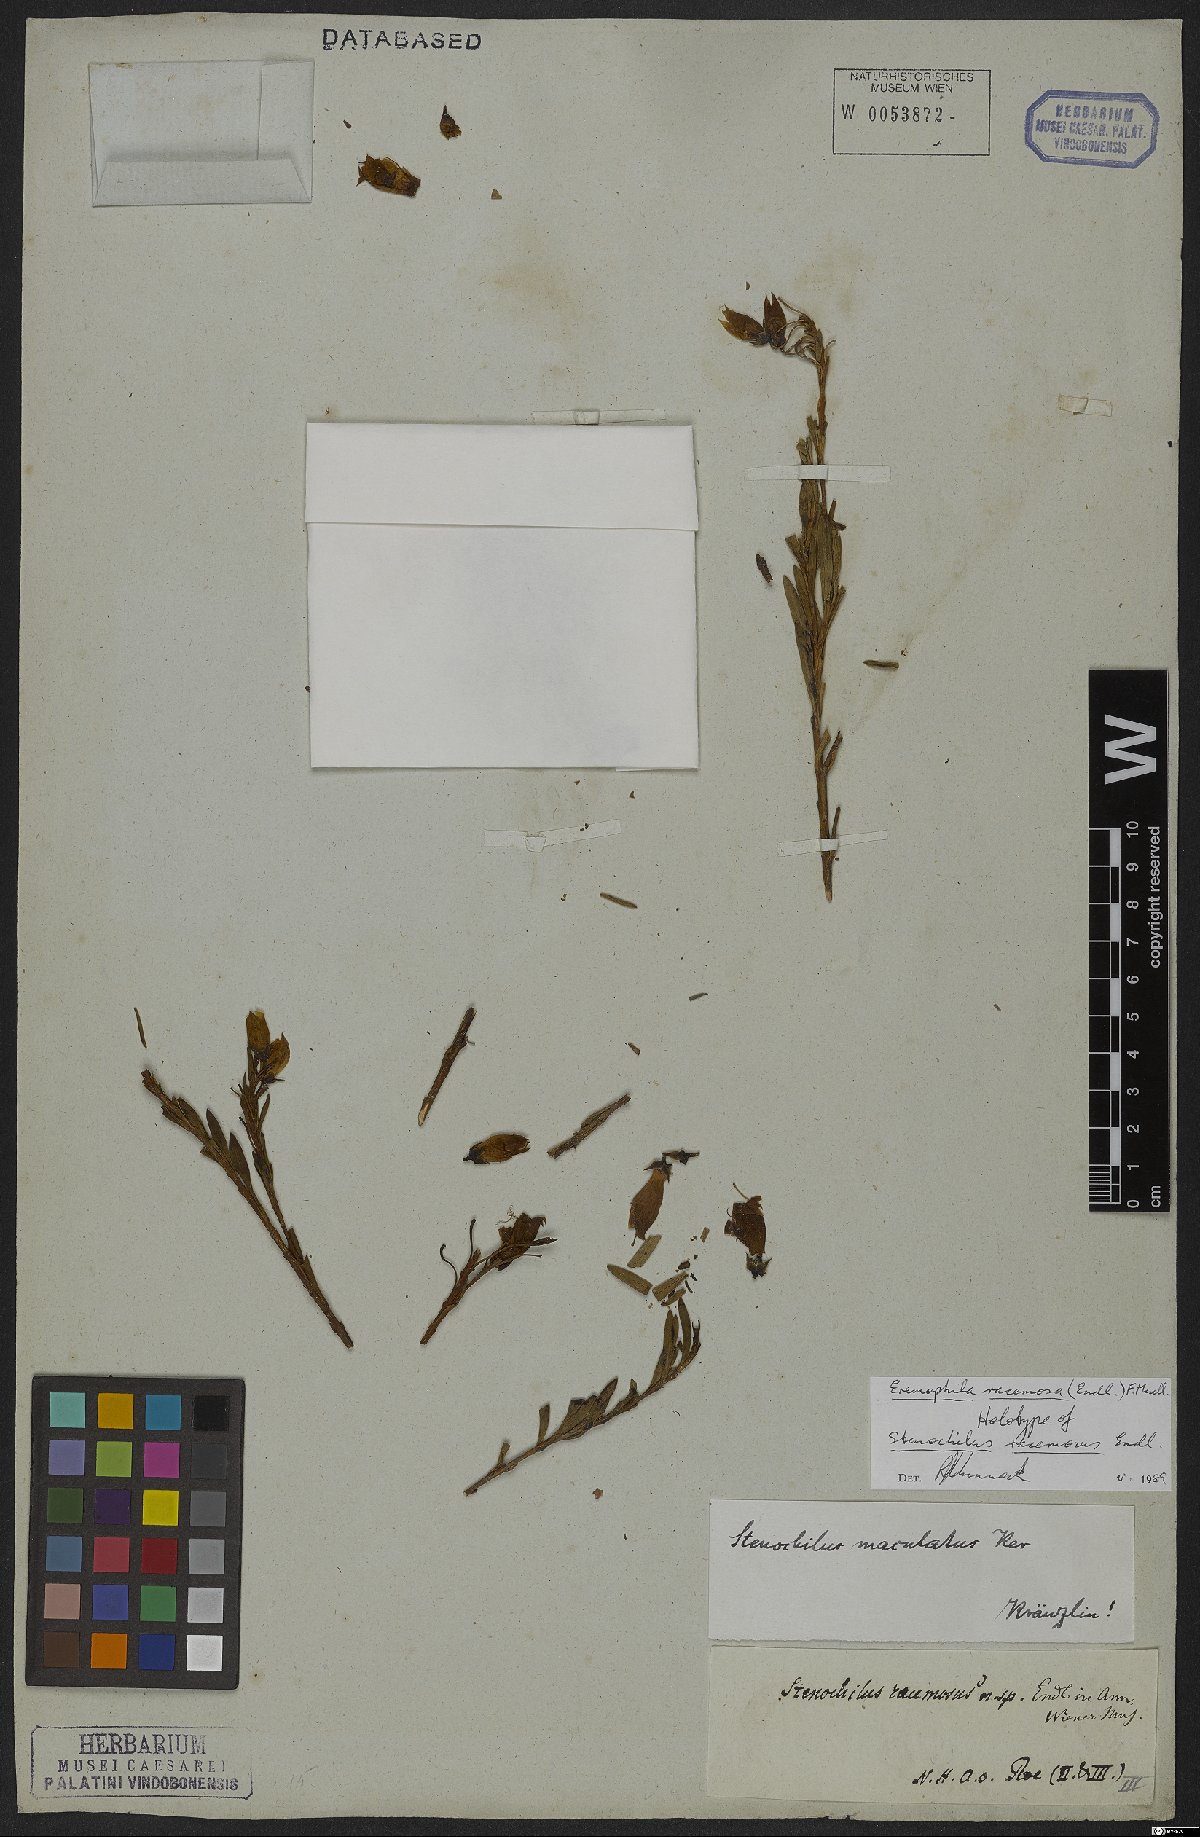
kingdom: Plantae
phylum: Tracheophyta
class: Magnoliopsida
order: Lamiales
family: Scrophulariaceae
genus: Eremophila
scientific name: Eremophila racemosa
